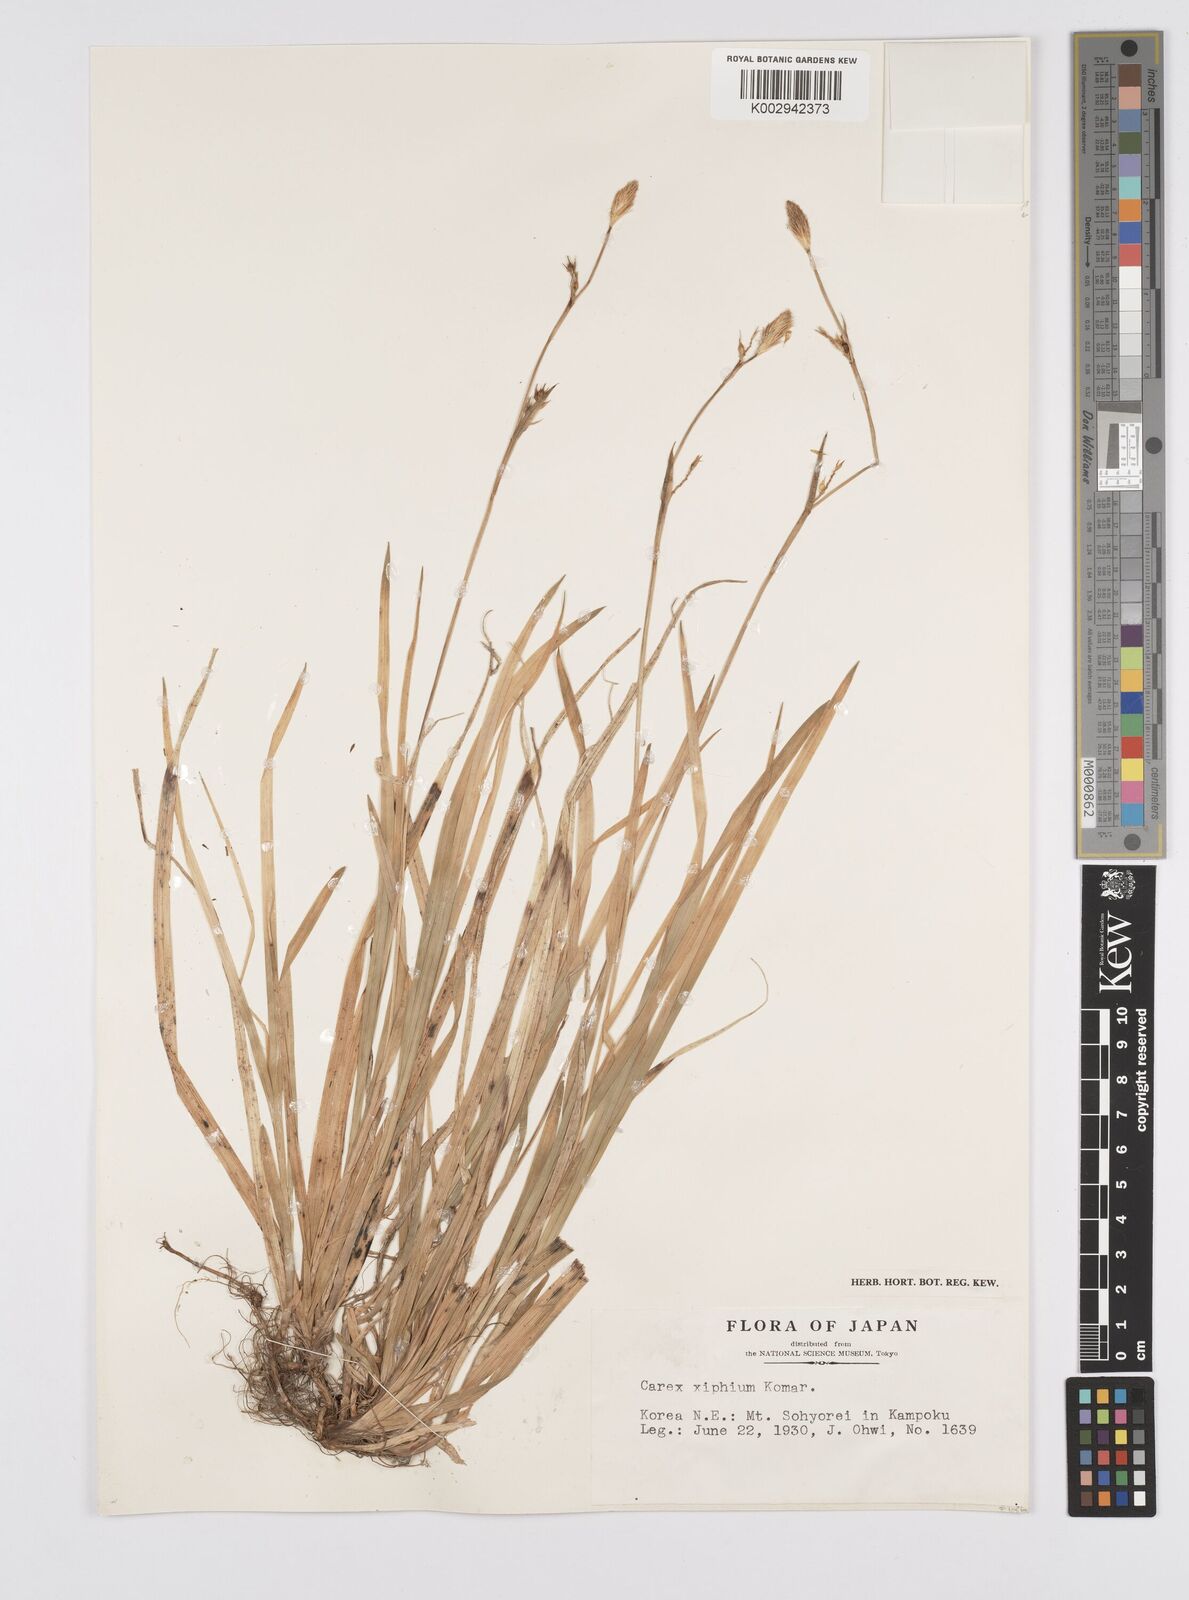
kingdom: Plantae
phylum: Tracheophyta
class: Liliopsida
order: Poales
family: Cyperaceae
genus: Carex
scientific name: Carex xiphium
